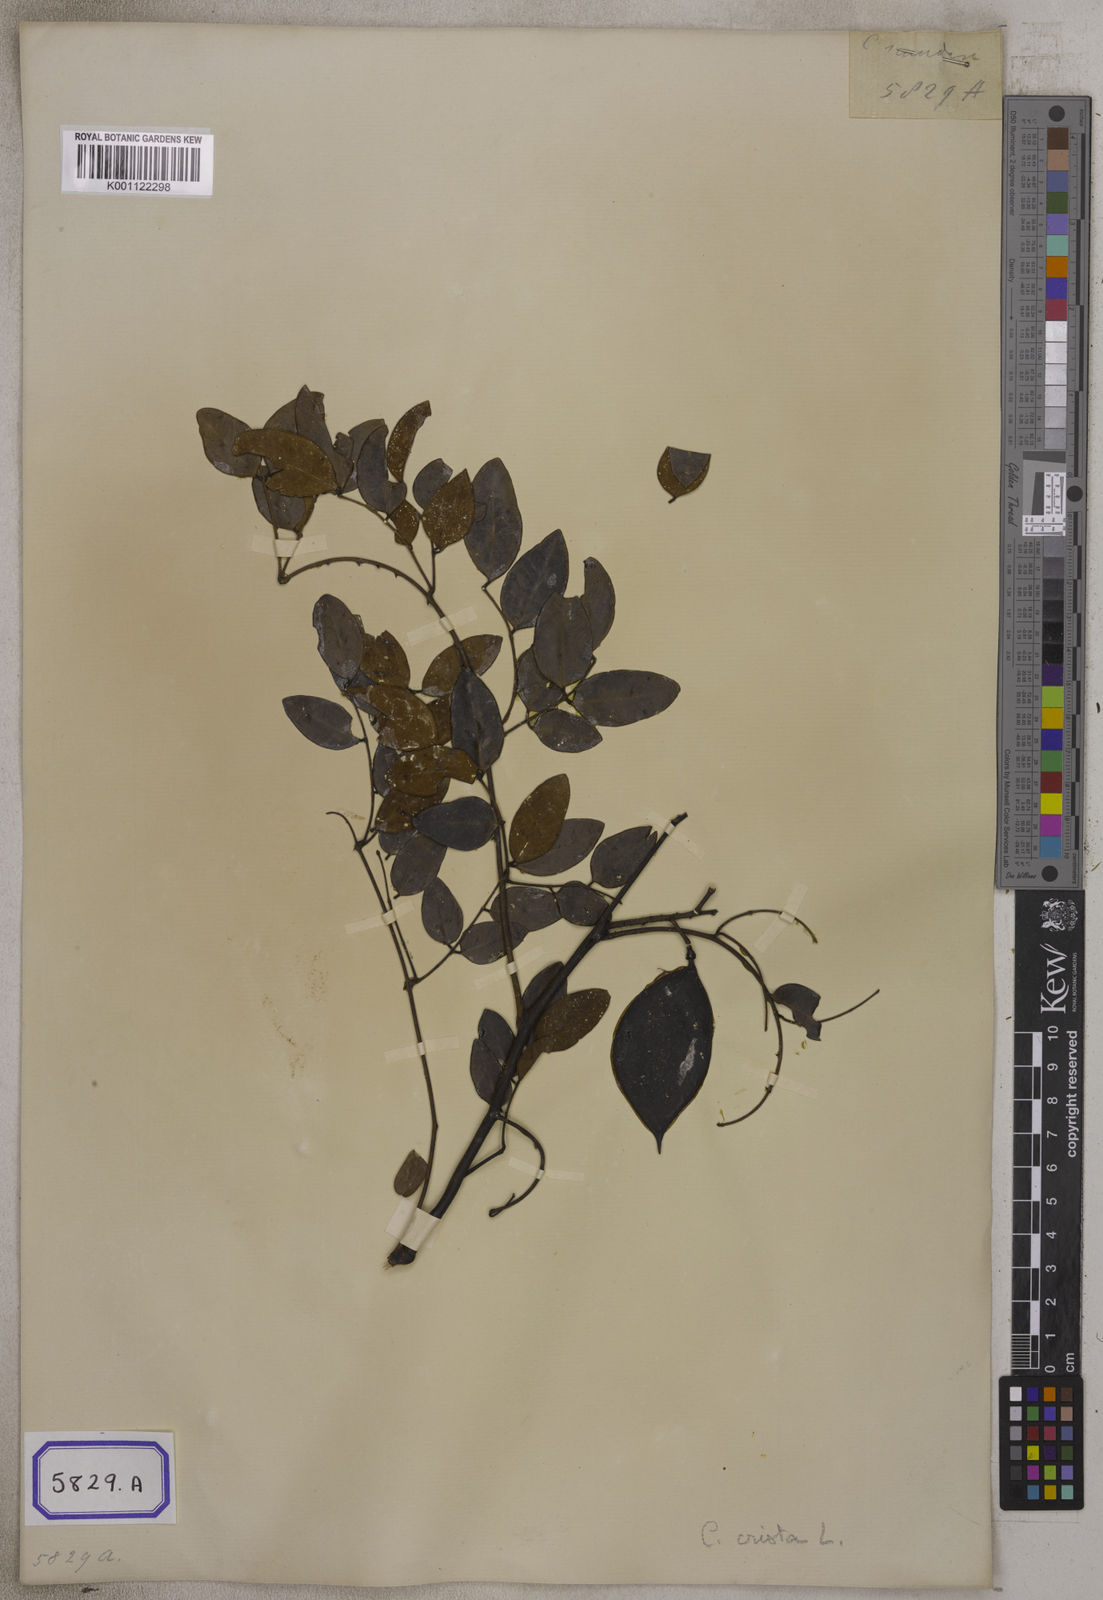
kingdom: Plantae
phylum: Tracheophyta
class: Magnoliopsida
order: Fabales
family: Fabaceae
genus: Caesalpinia
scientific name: Caesalpinia Ticanto crista
